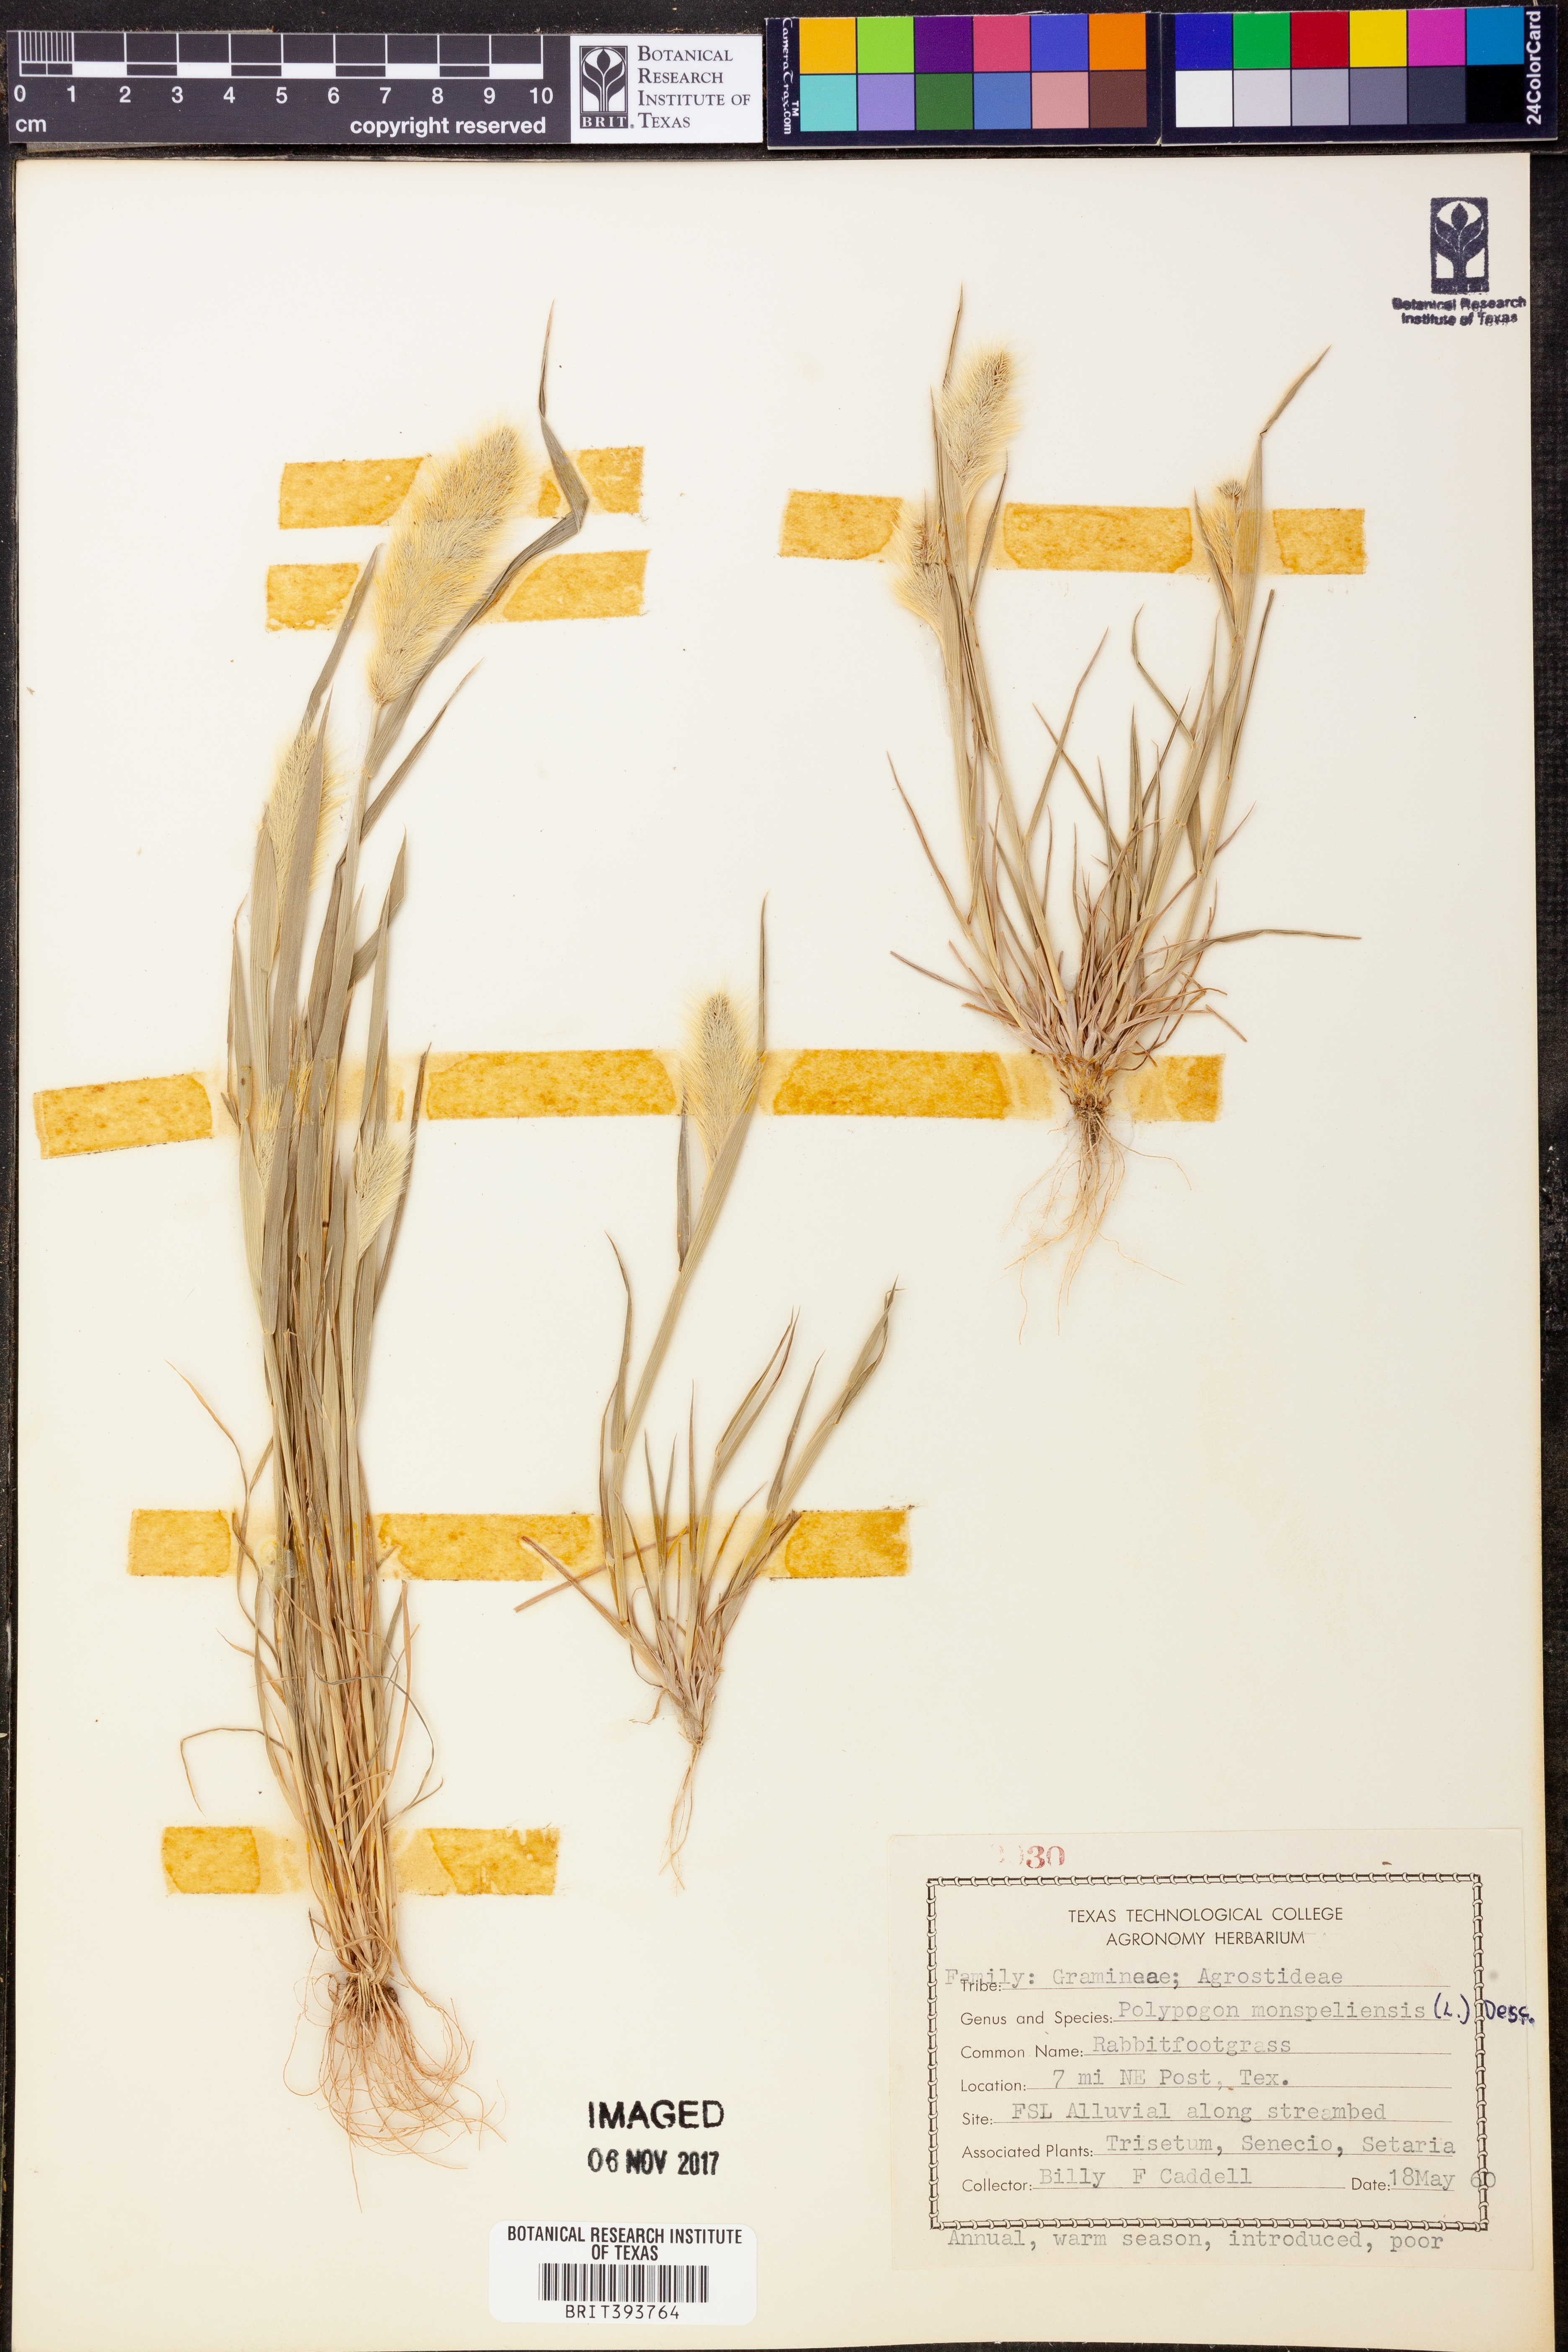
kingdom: Plantae
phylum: Tracheophyta
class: Liliopsida
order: Poales
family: Poaceae
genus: Polypogon
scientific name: Polypogon monspeliensis
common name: Annual rabbitsfoot grass
